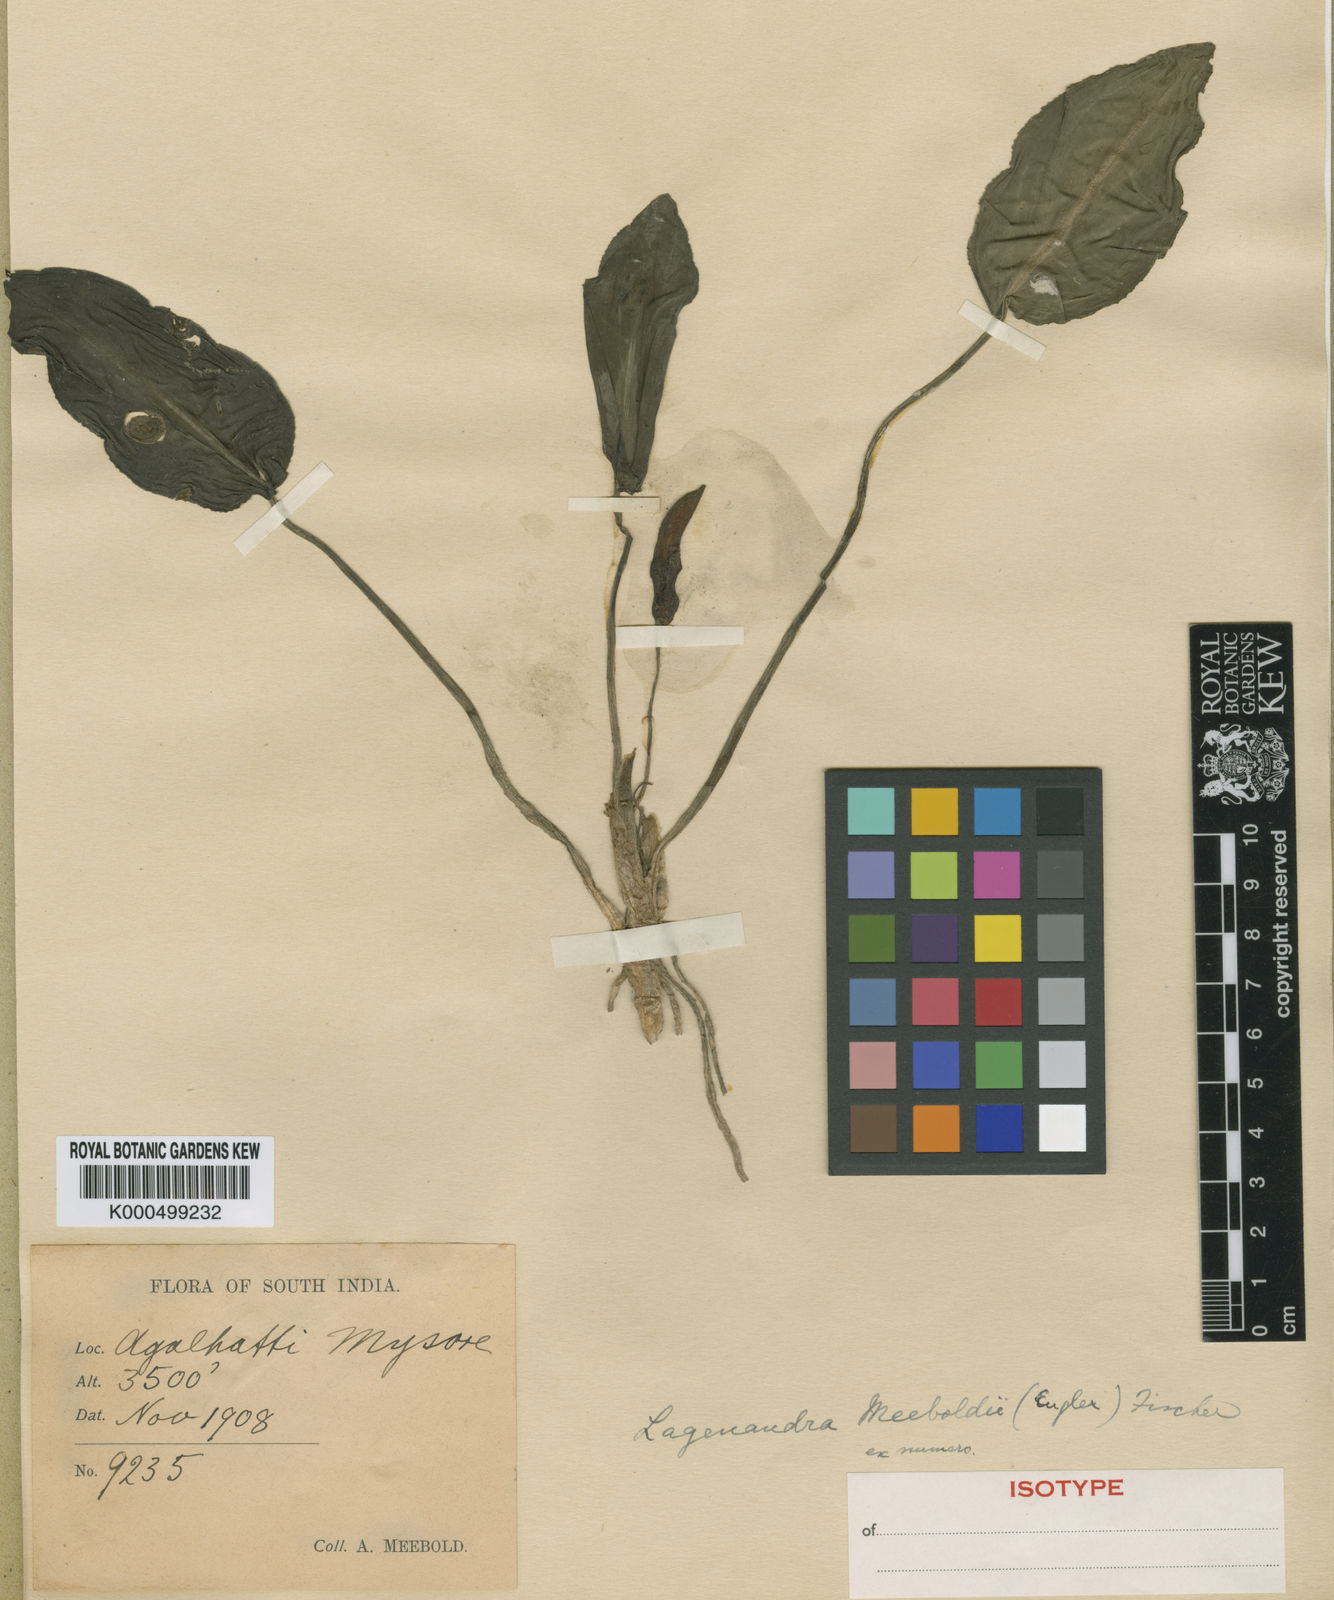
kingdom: Plantae
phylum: Tracheophyta
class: Liliopsida
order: Alismatales
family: Araceae
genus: Lagenandra
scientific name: Lagenandra meeboldii
